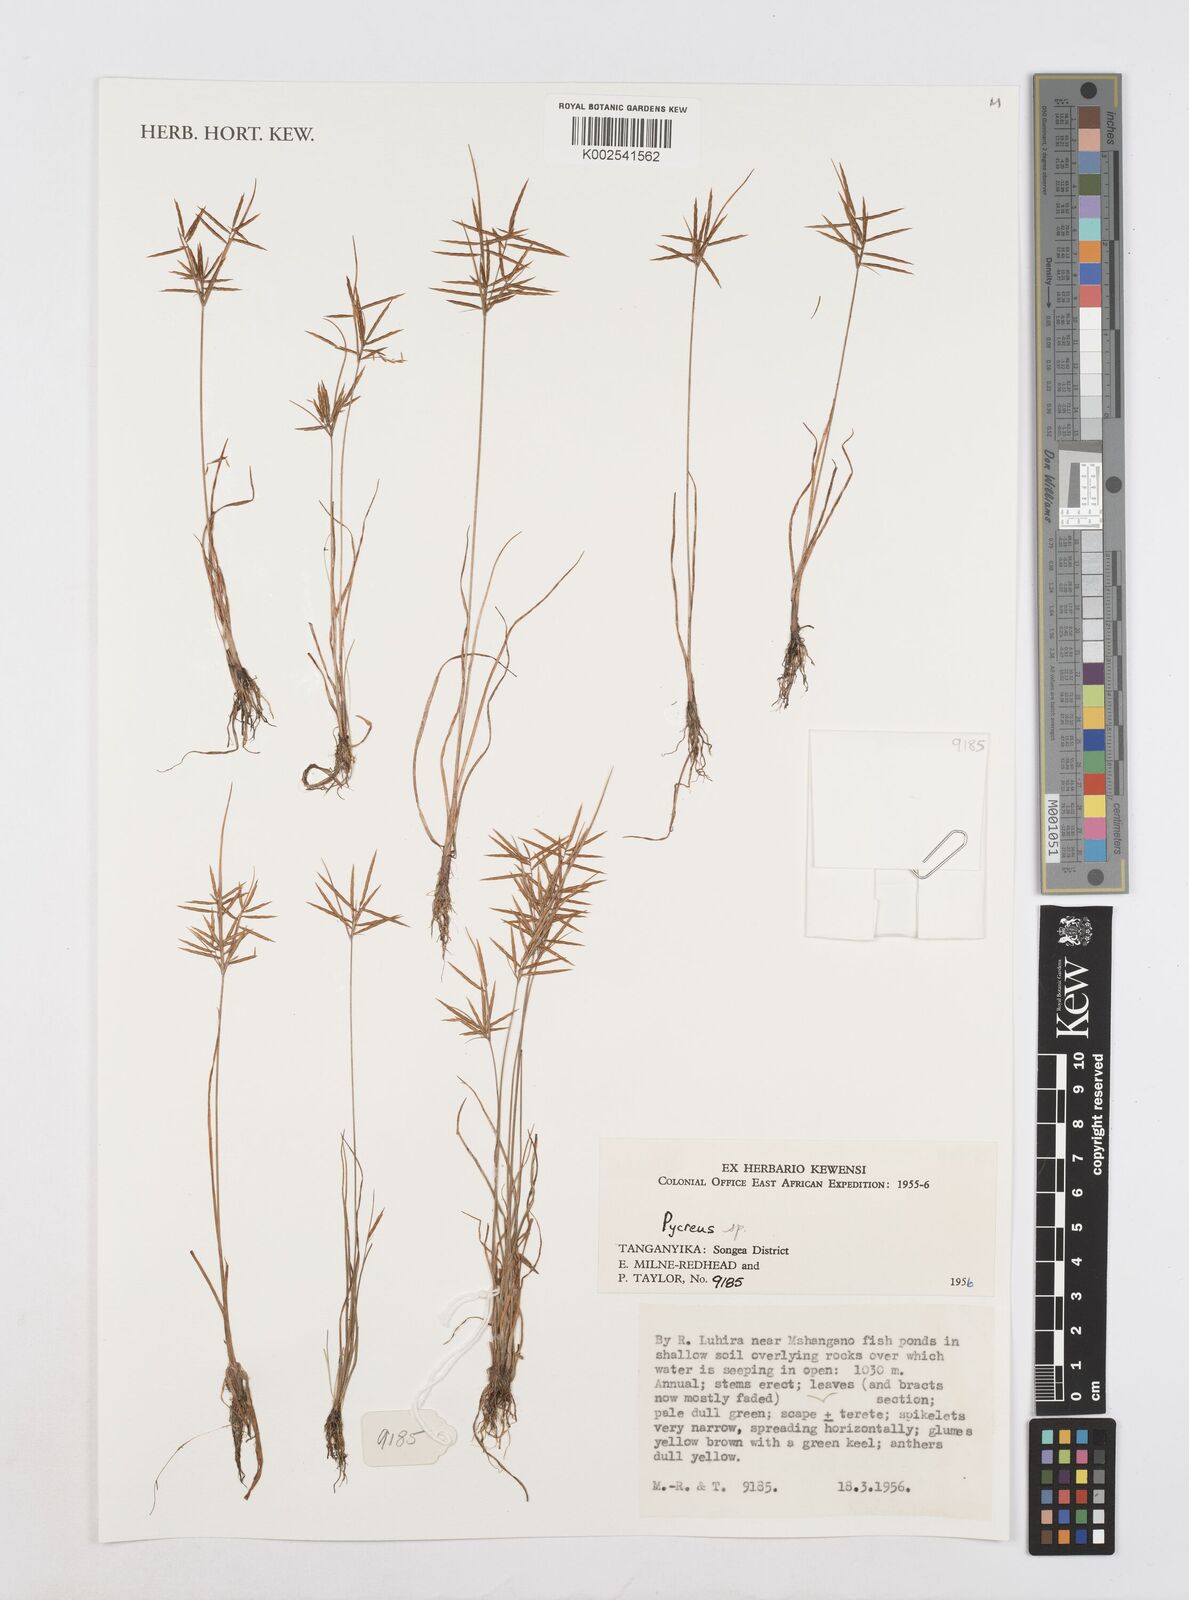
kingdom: Plantae
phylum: Tracheophyta
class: Liliopsida
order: Poales
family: Cyperaceae
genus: Cyperus
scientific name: Cyperus intactus
